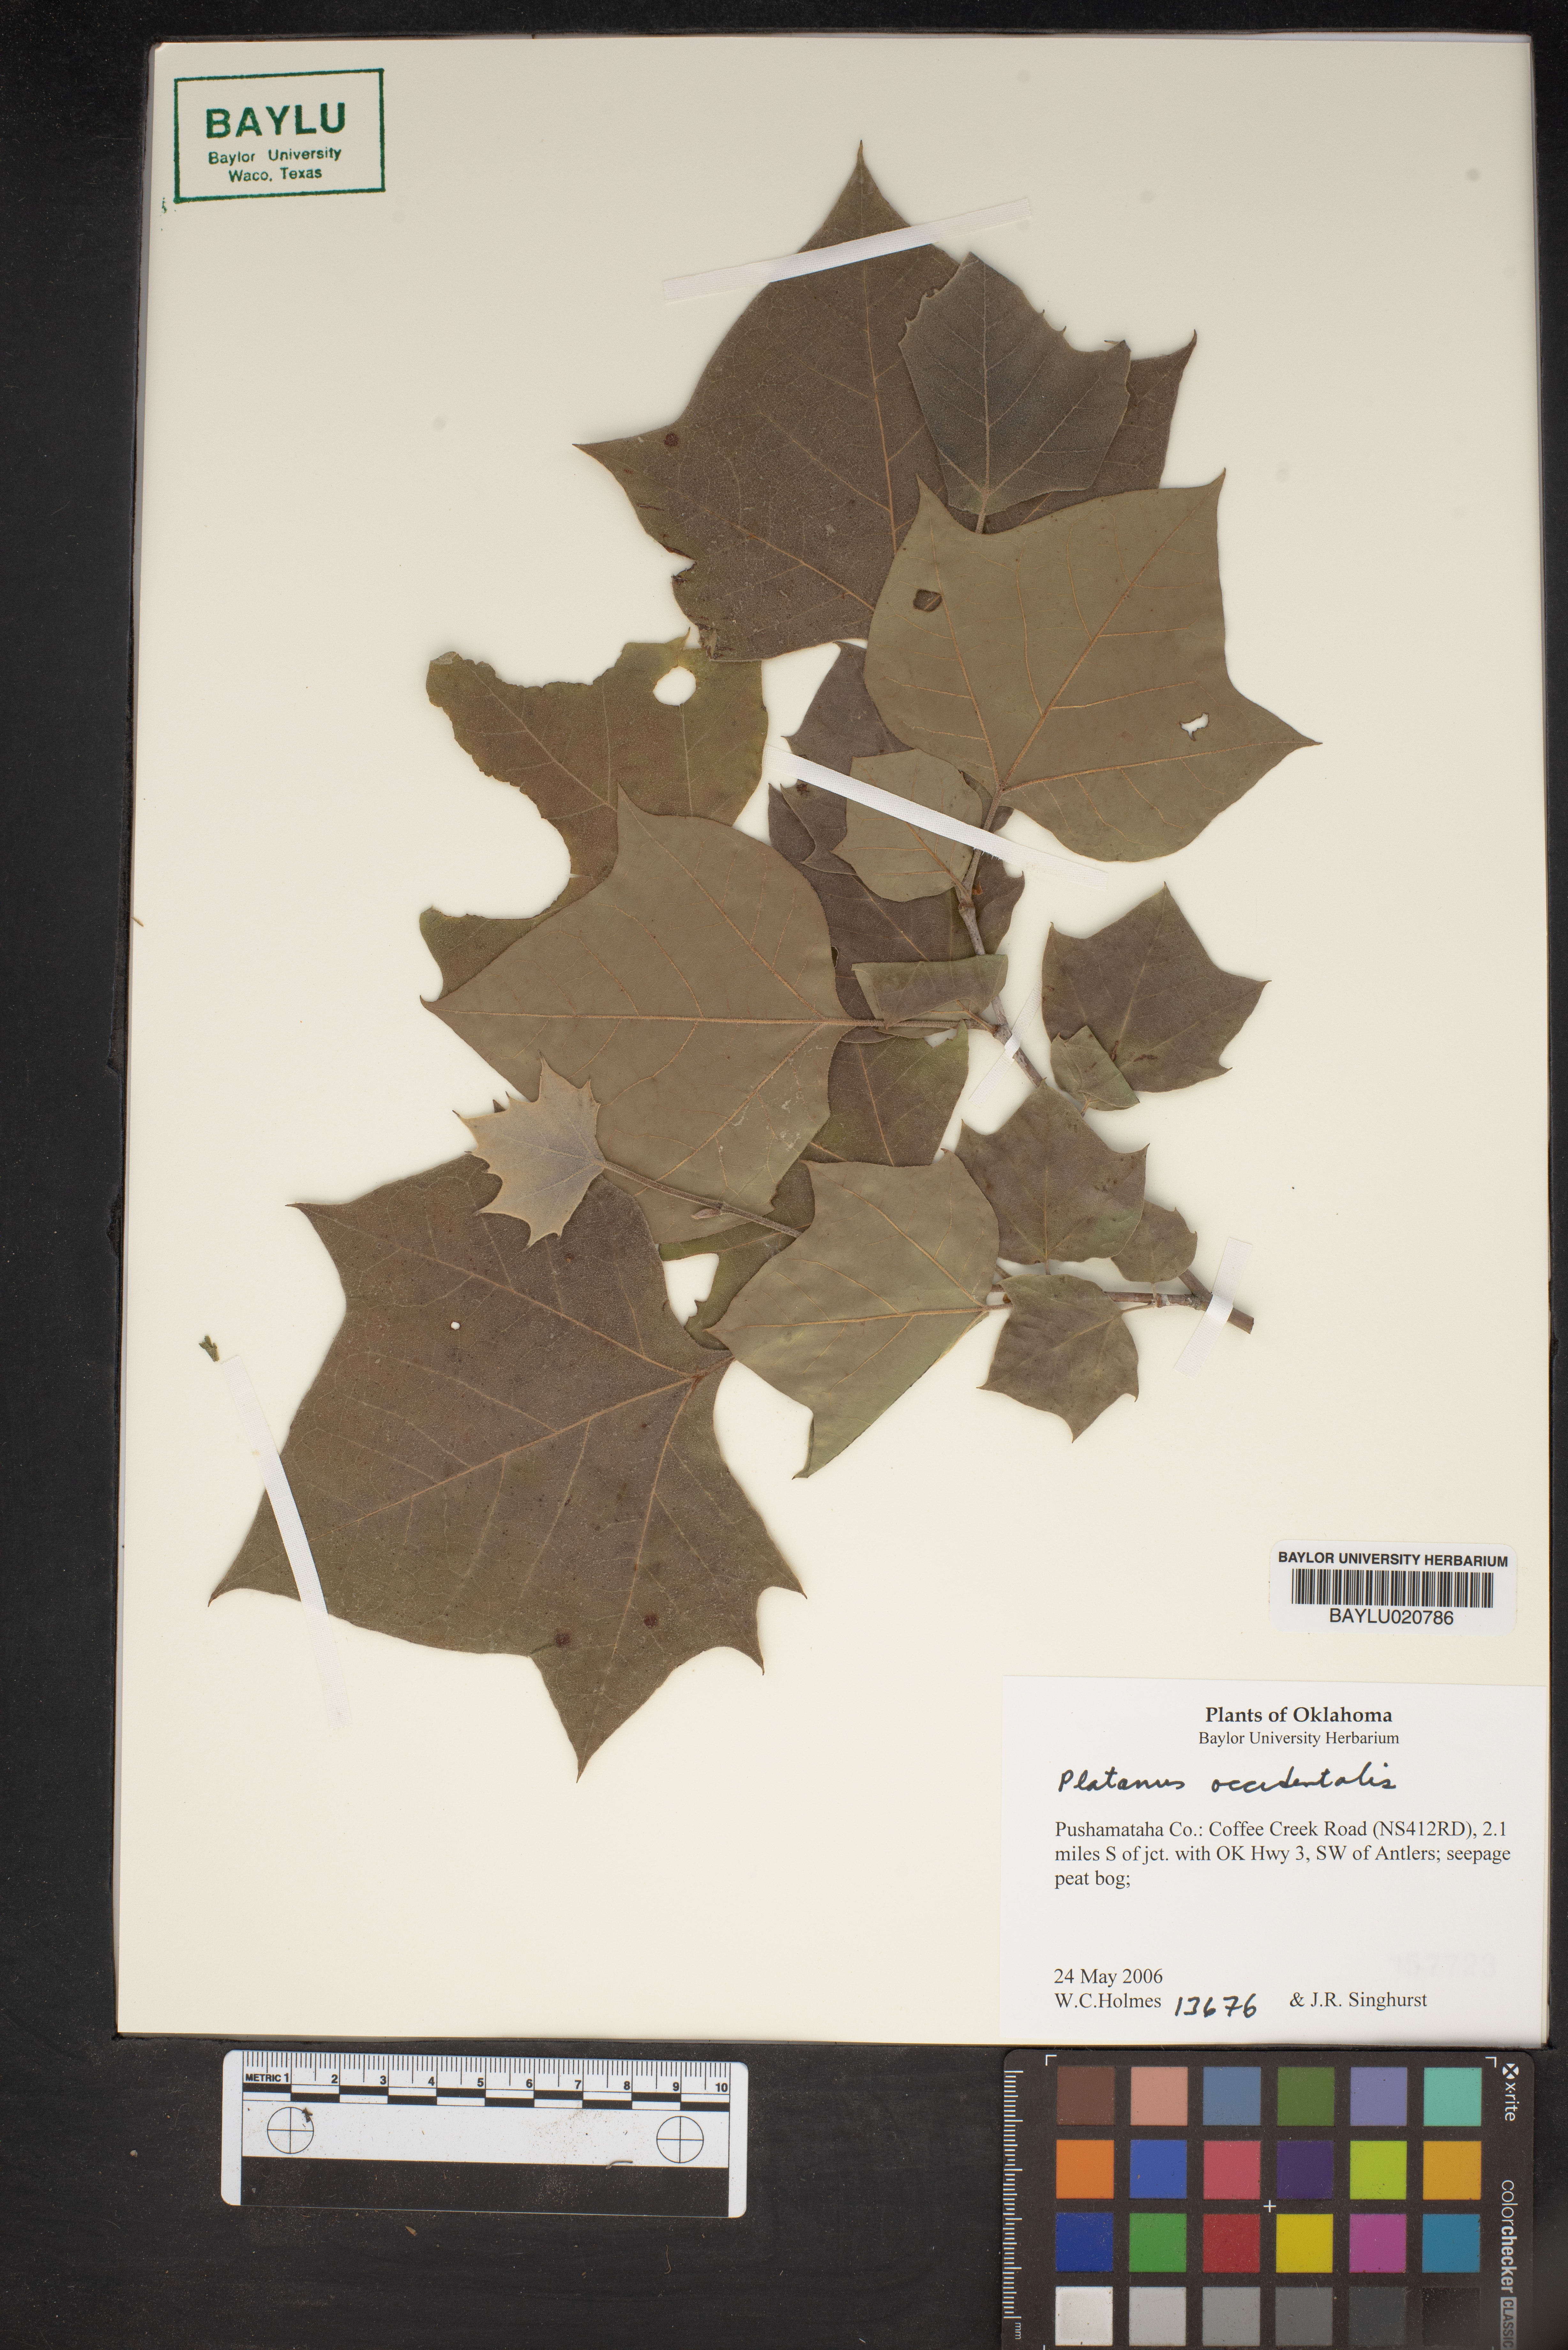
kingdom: Plantae
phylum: Tracheophyta
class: Magnoliopsida
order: Proteales
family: Platanaceae
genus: Platanus
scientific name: Platanus occidentalis
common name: American sycamore
